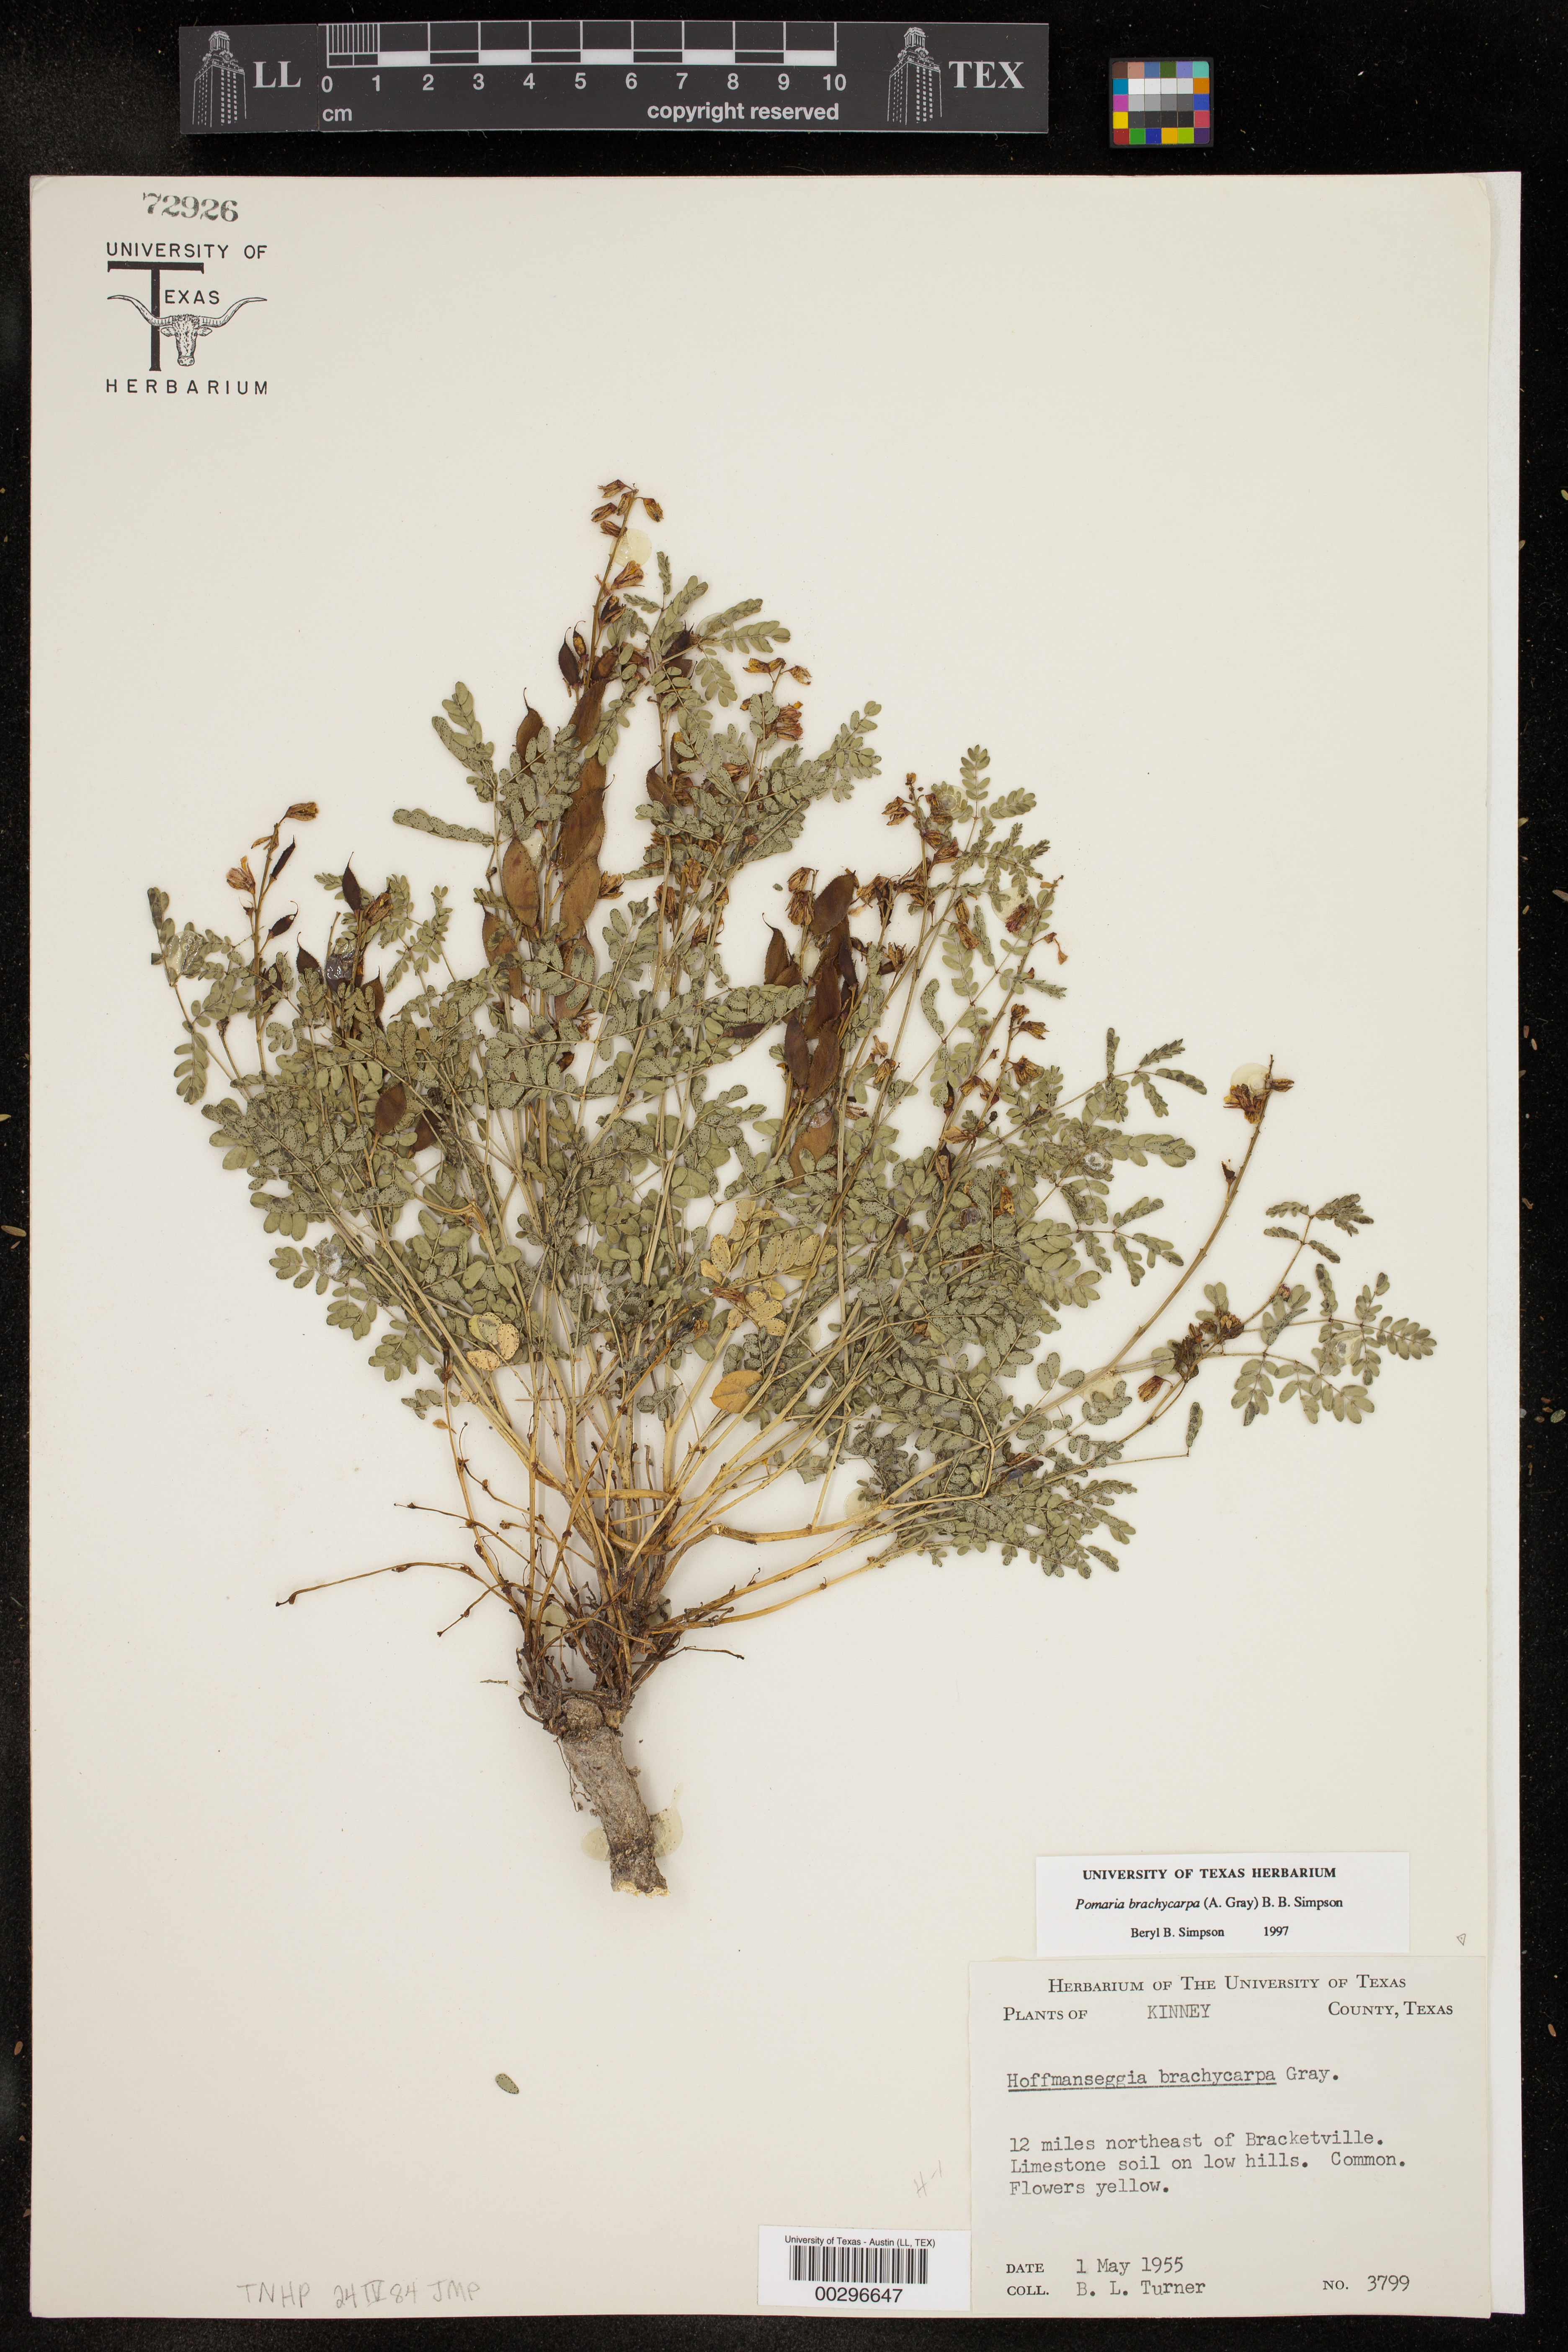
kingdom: Plantae
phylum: Tracheophyta
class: Magnoliopsida
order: Fabales
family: Fabaceae
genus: Pomaria
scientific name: Pomaria brachycarpa
